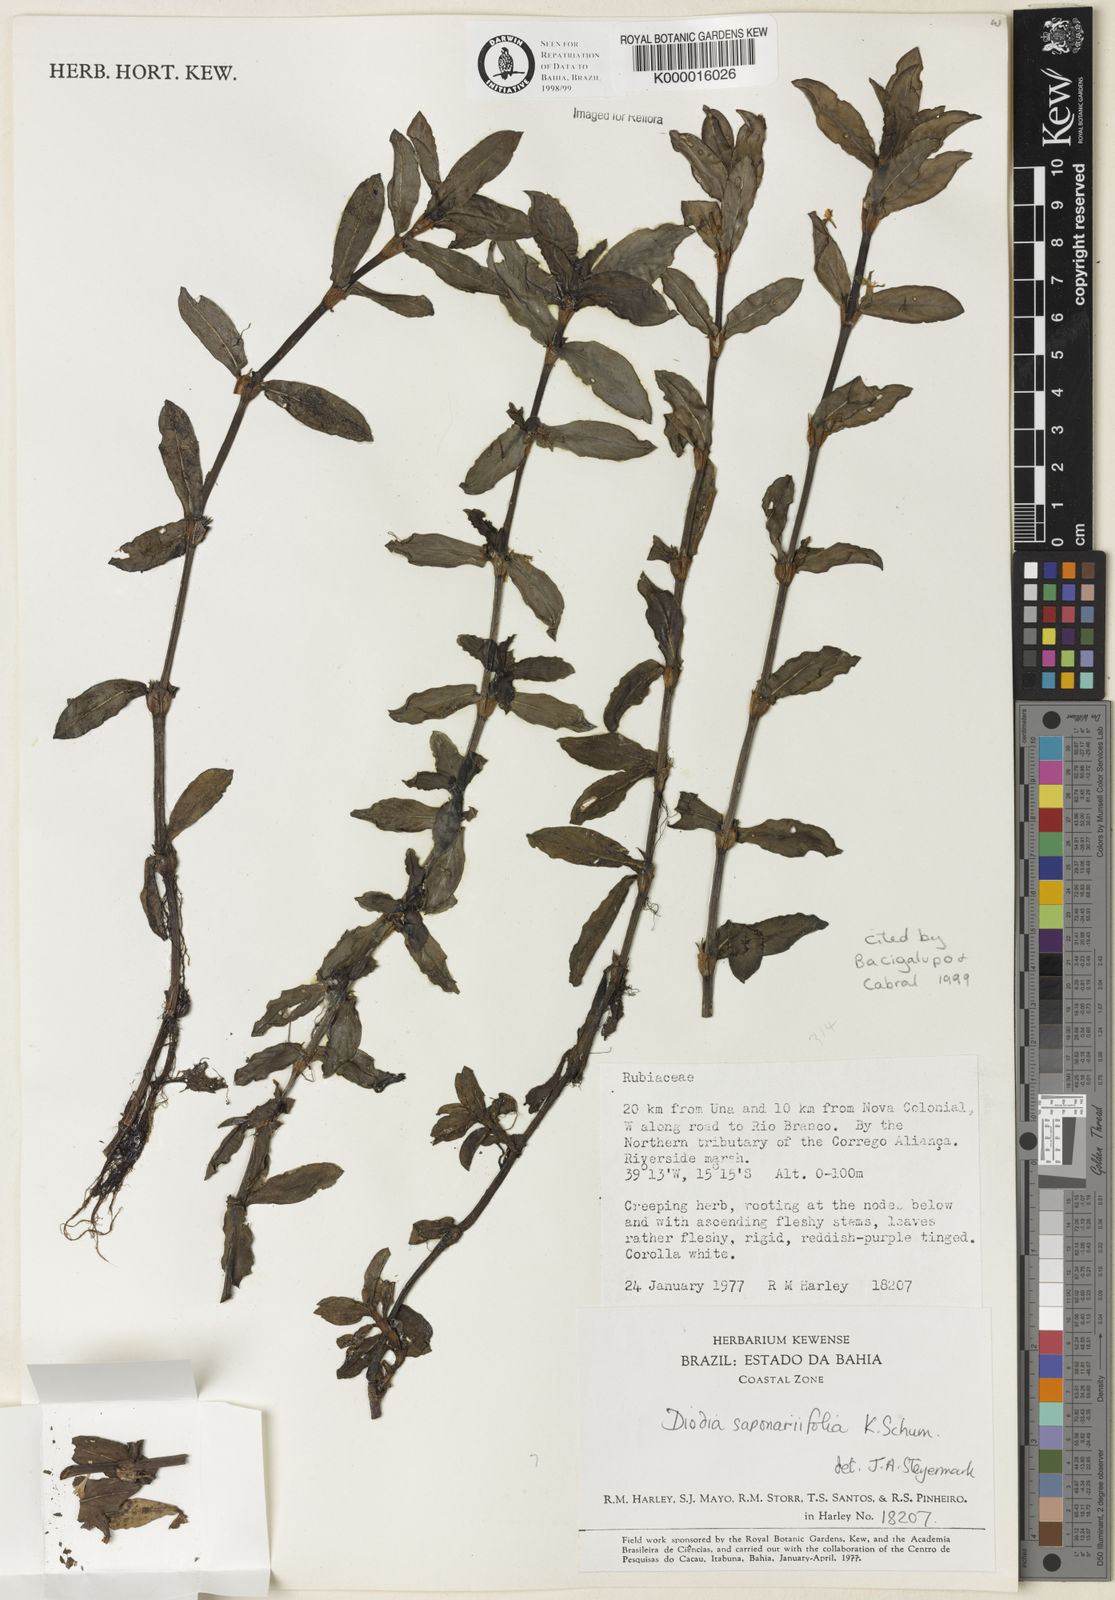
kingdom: Plantae
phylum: Tracheophyta
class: Magnoliopsida
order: Gentianales
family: Rubiaceae
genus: Diodia
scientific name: Diodia saponariifolia
